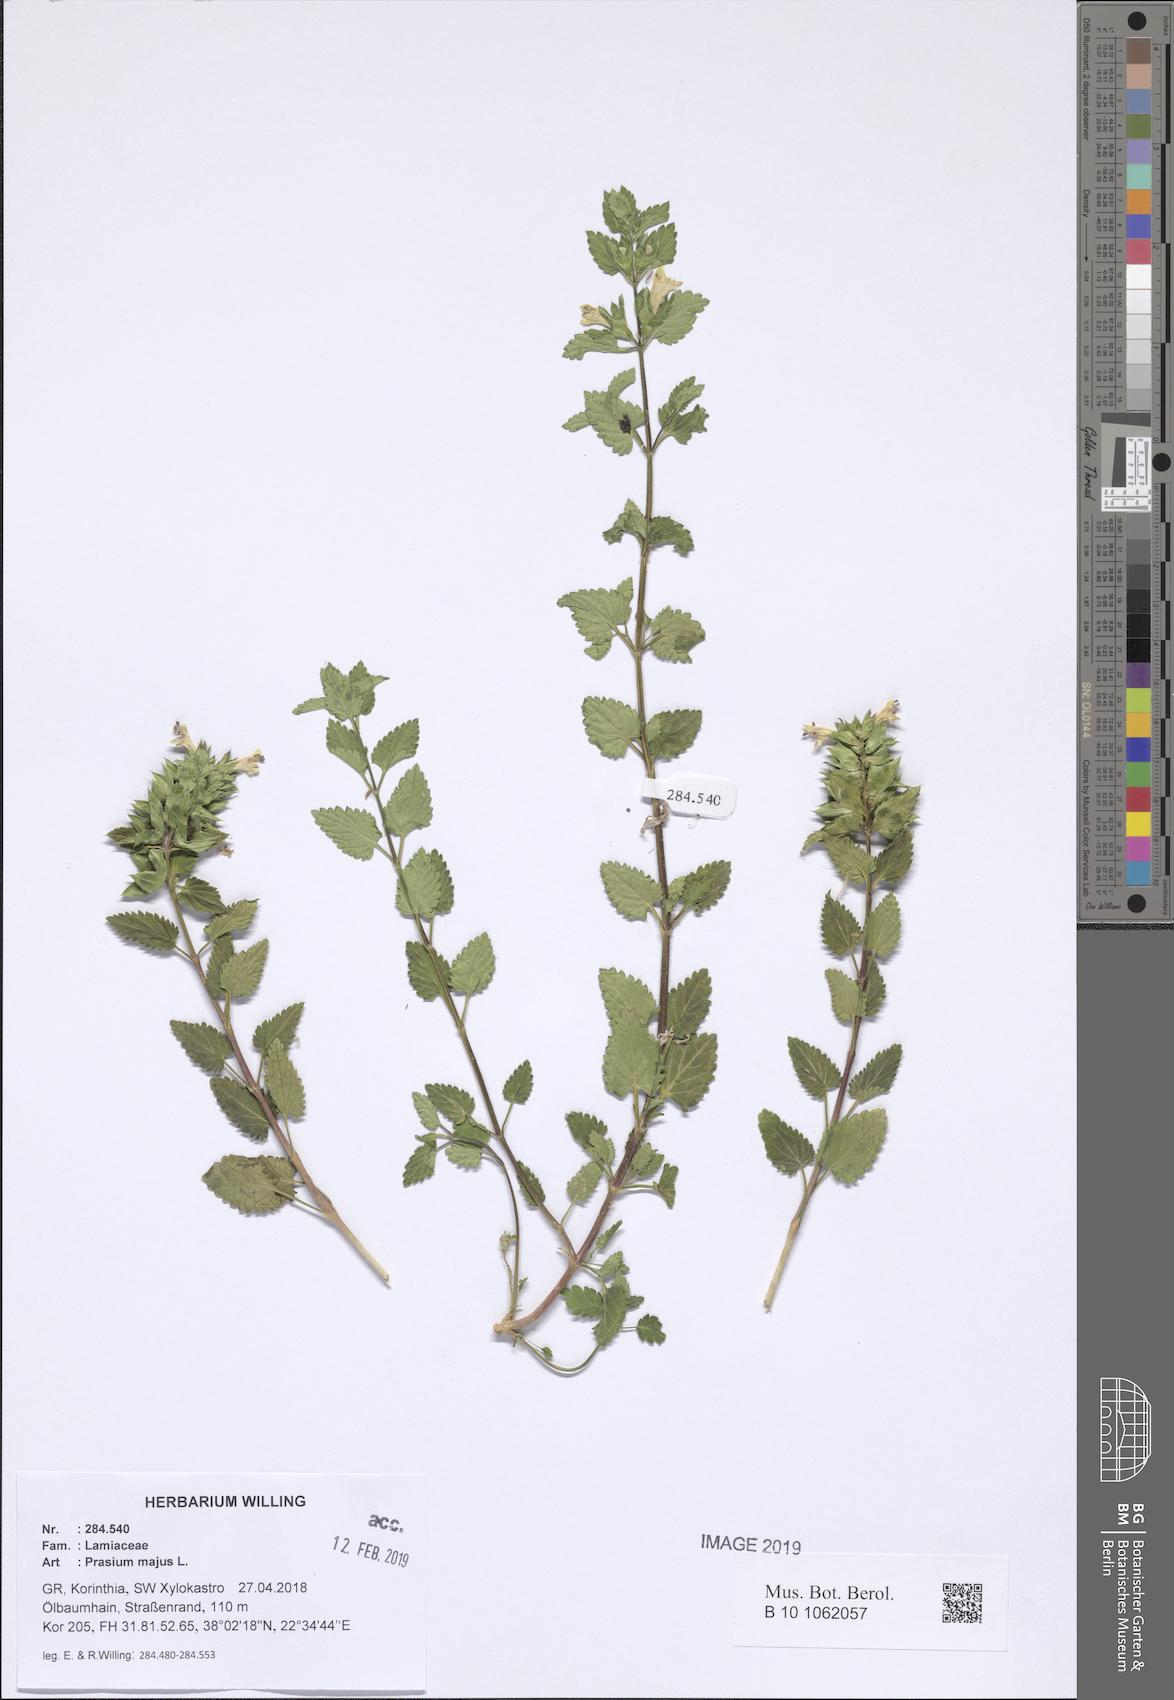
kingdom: Plantae
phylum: Tracheophyta
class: Magnoliopsida
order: Lamiales
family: Lamiaceae
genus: Prasium
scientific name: Prasium majus
